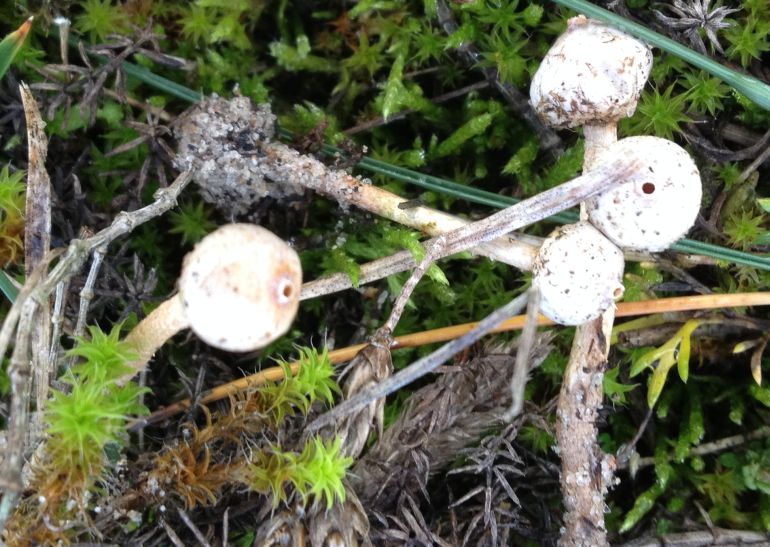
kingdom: Fungi
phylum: Basidiomycota
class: Agaricomycetes
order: Agaricales
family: Agaricaceae
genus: Tulostoma
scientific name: Tulostoma brumale
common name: vinter-stilkbovist
